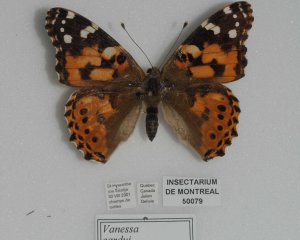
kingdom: Animalia
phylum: Arthropoda
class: Insecta
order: Lepidoptera
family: Nymphalidae
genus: Vanessa
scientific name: Vanessa cardui
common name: Painted Lady
